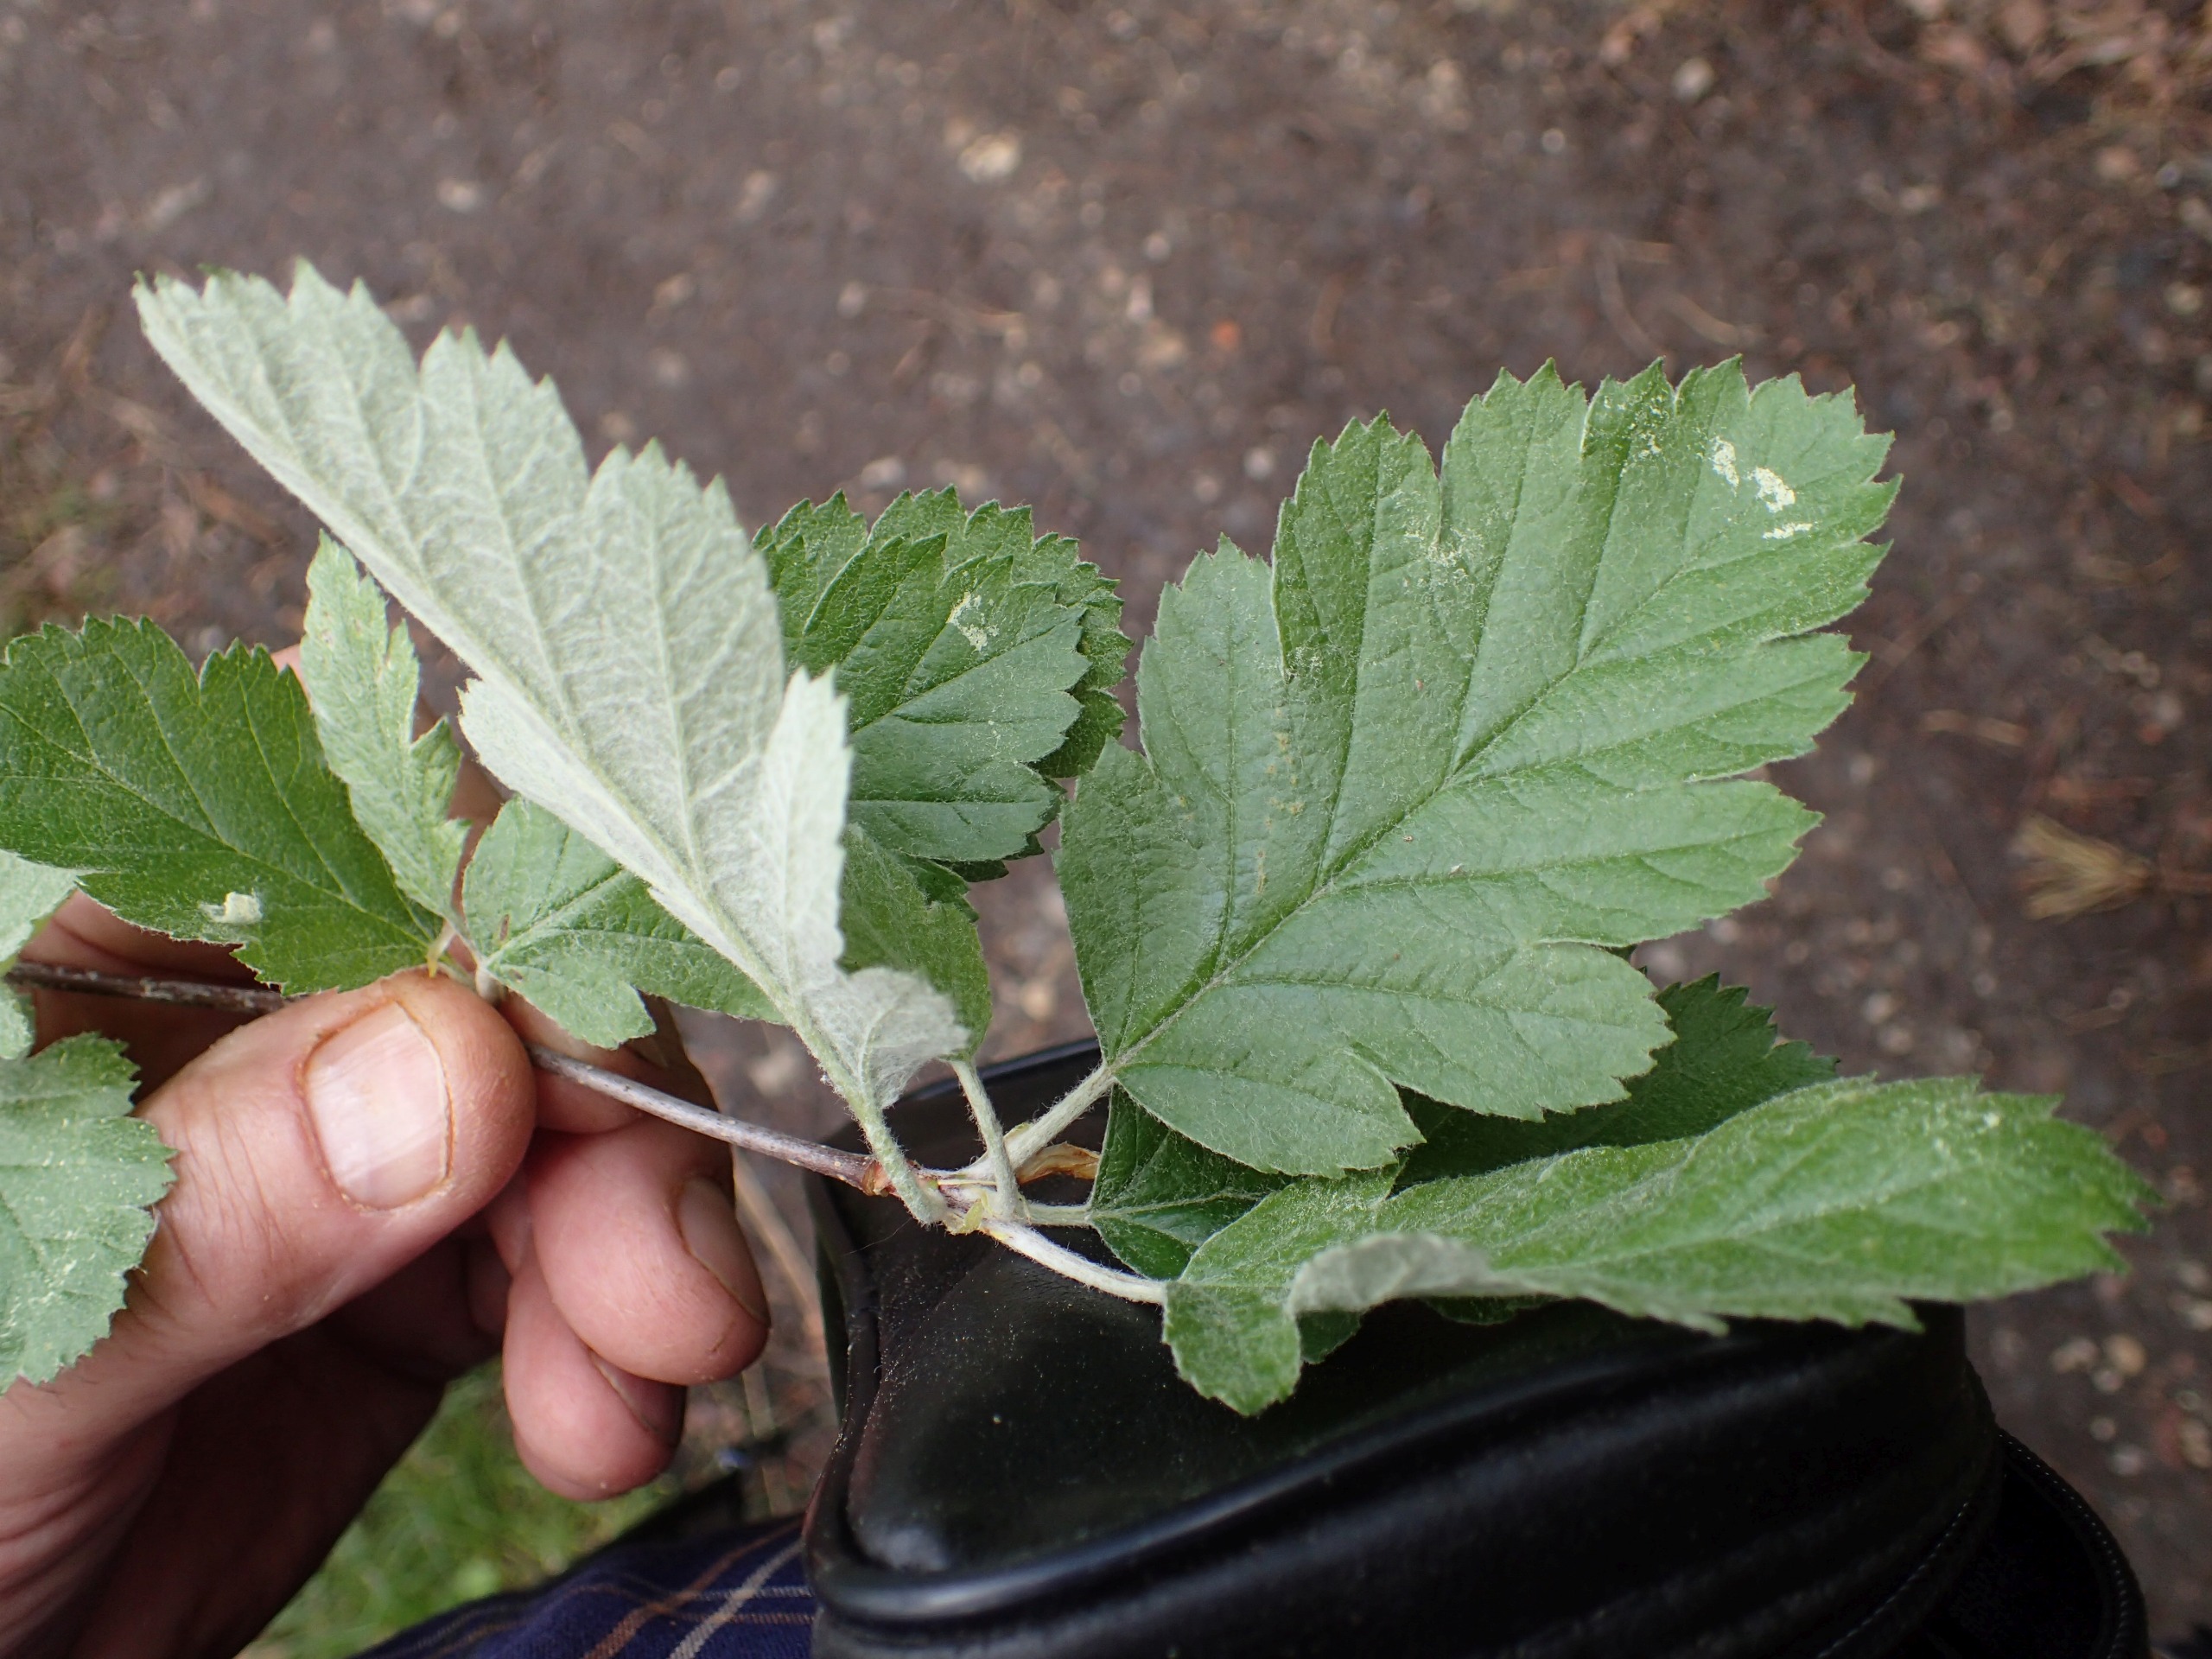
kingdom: Plantae
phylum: Tracheophyta
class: Magnoliopsida
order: Rosales
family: Rosaceae
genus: Scandosorbus
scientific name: Scandosorbus intermedia
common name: Selje-røn
